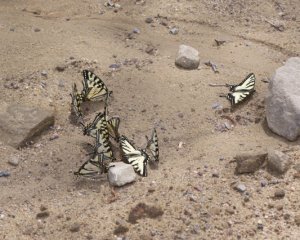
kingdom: Animalia
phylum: Arthropoda
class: Insecta
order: Lepidoptera
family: Papilionidae
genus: Pterourus
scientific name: Pterourus canadensis
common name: Canadian Tiger Swallowtail
